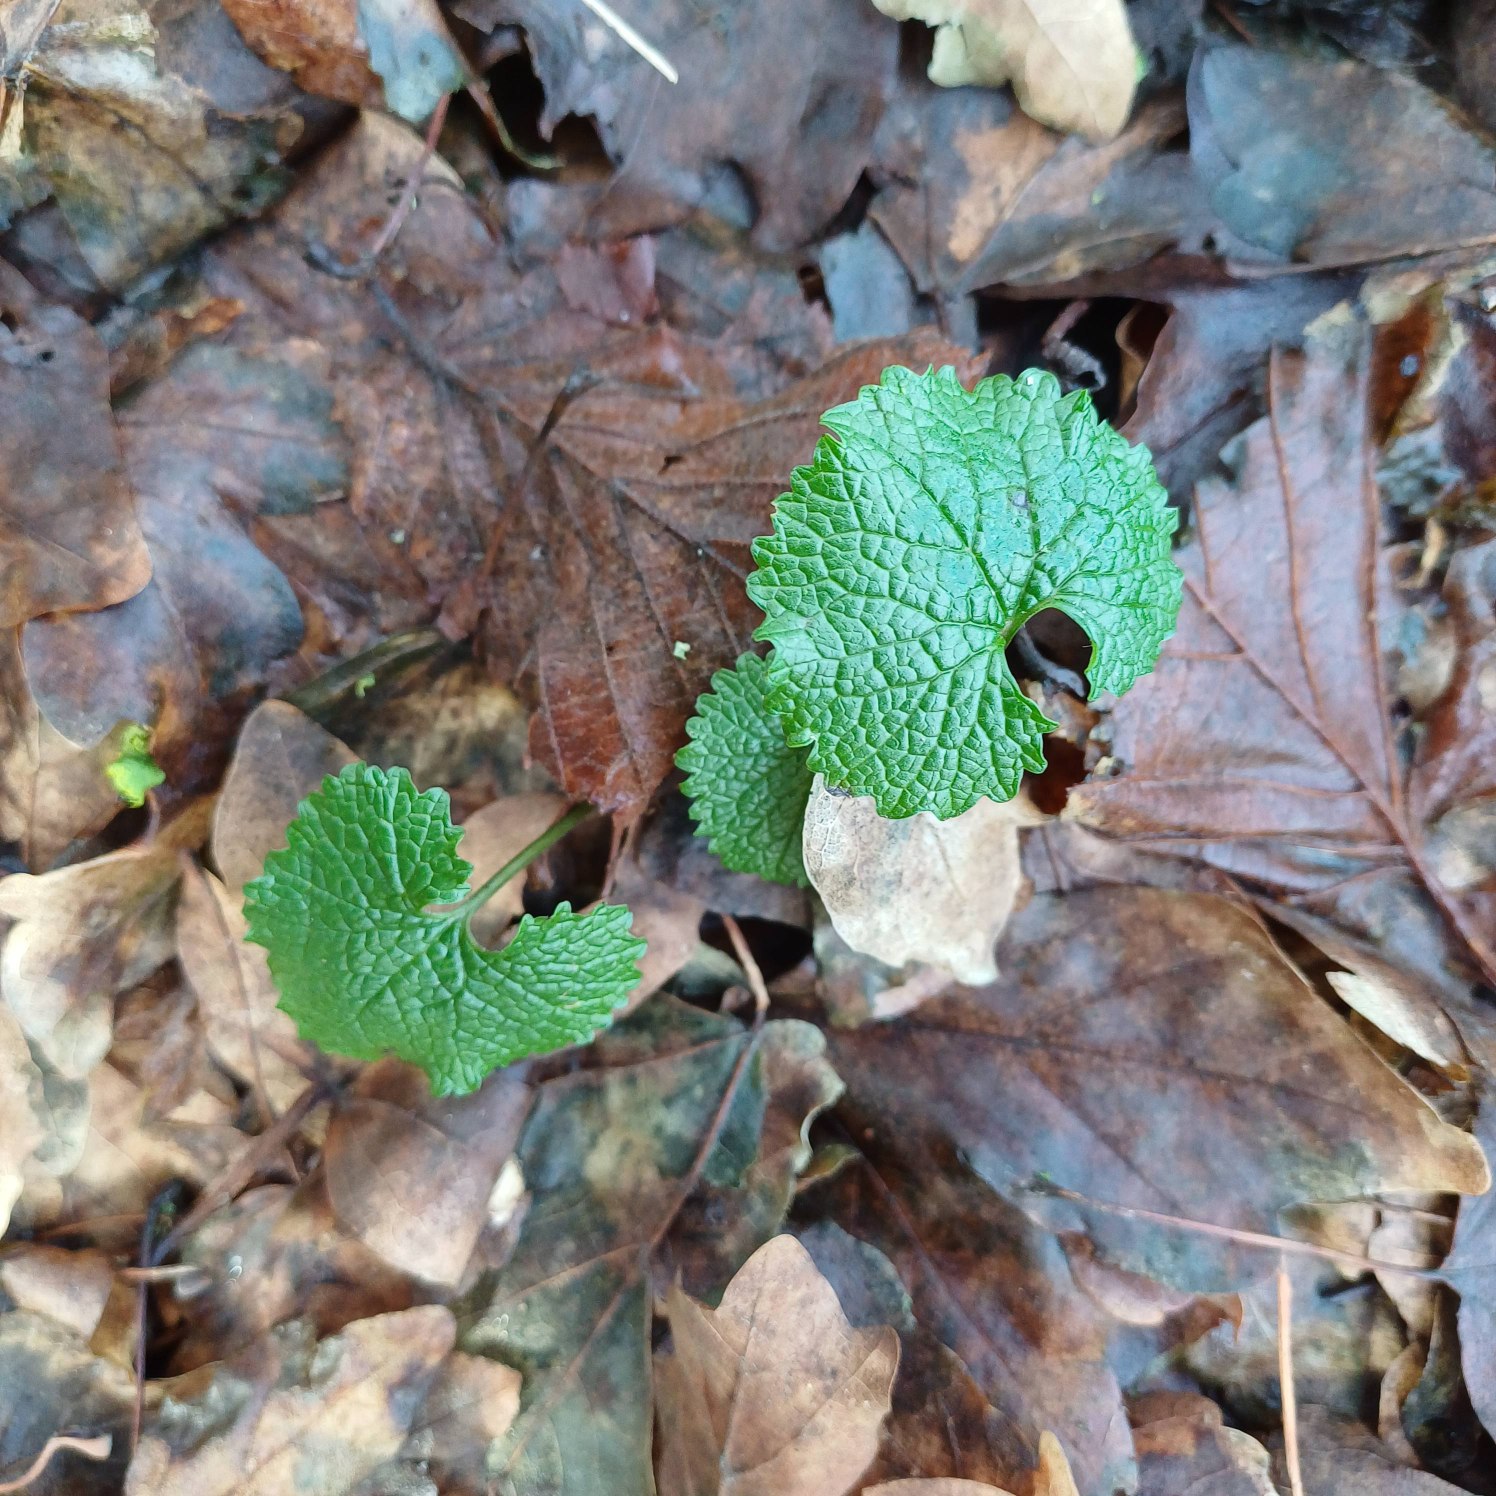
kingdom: Plantae
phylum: Tracheophyta
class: Magnoliopsida
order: Brassicales
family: Brassicaceae
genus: Alliaria
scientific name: Alliaria petiolata
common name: Løgkarse
